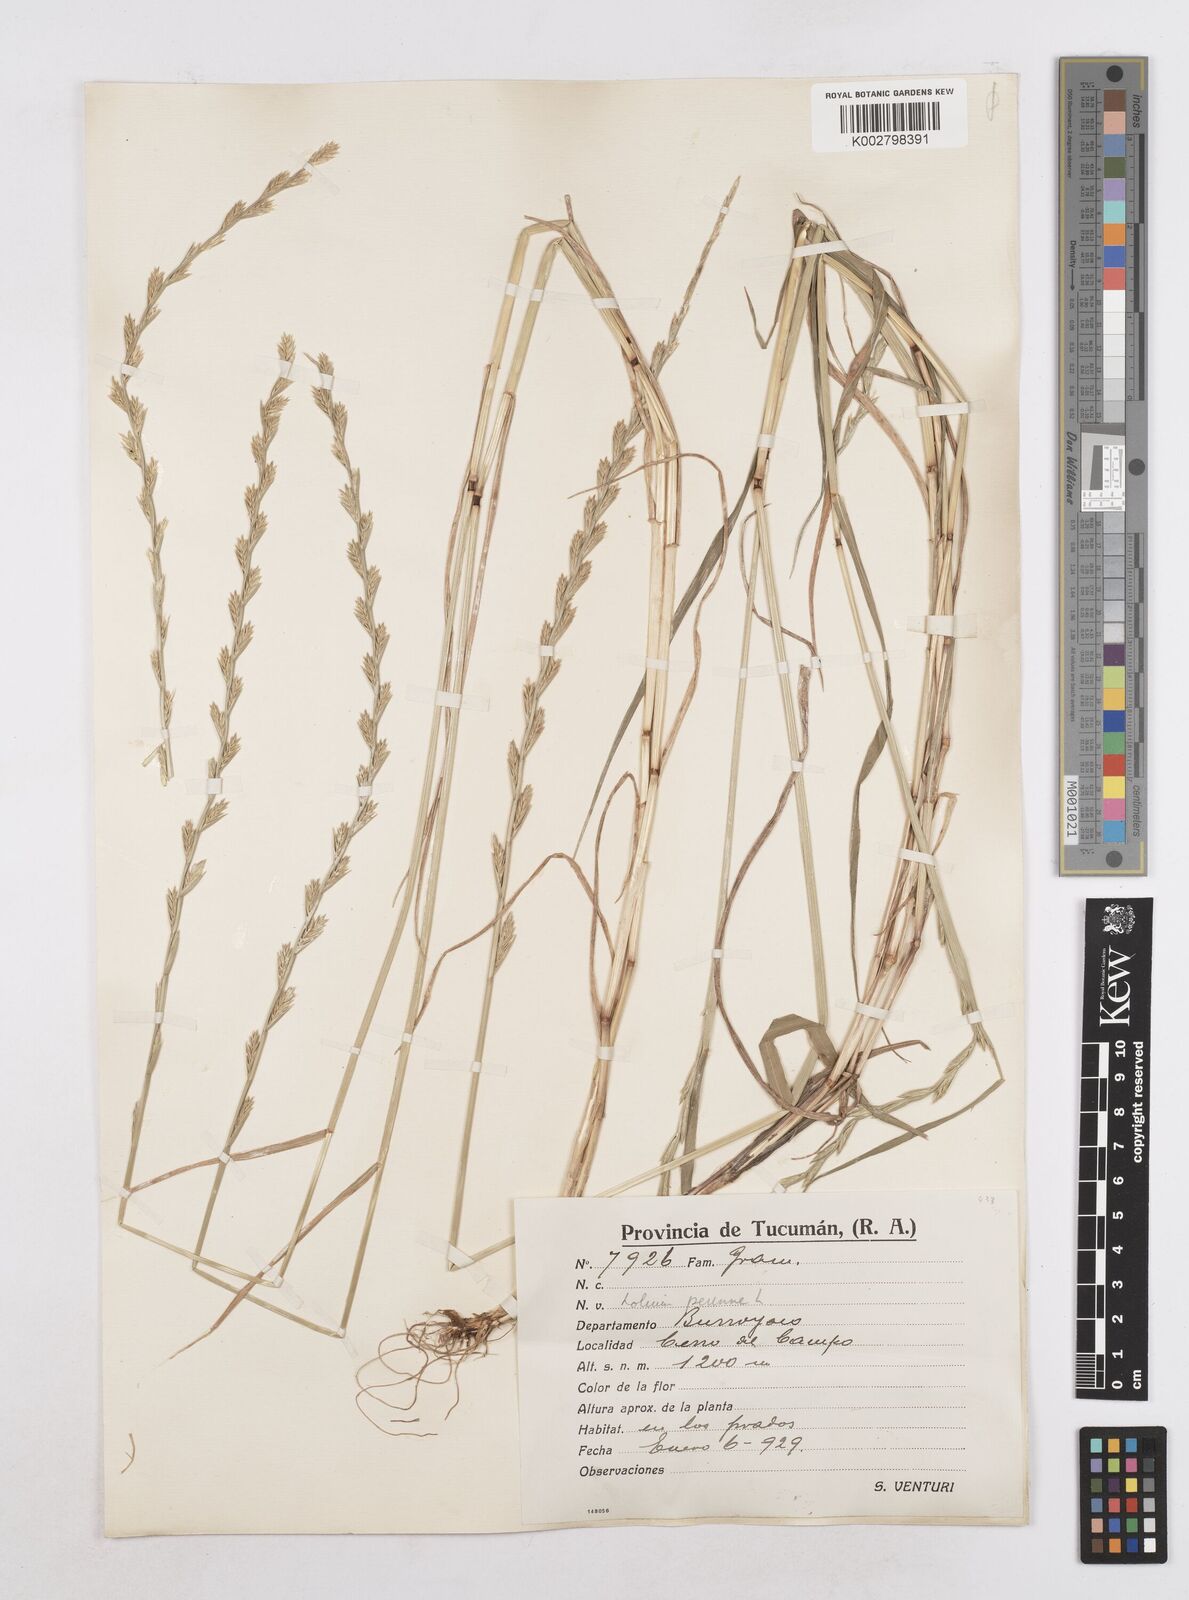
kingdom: Plantae
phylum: Tracheophyta
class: Liliopsida
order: Poales
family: Poaceae
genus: Lolium
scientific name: Lolium perenne
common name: Perennial ryegrass
